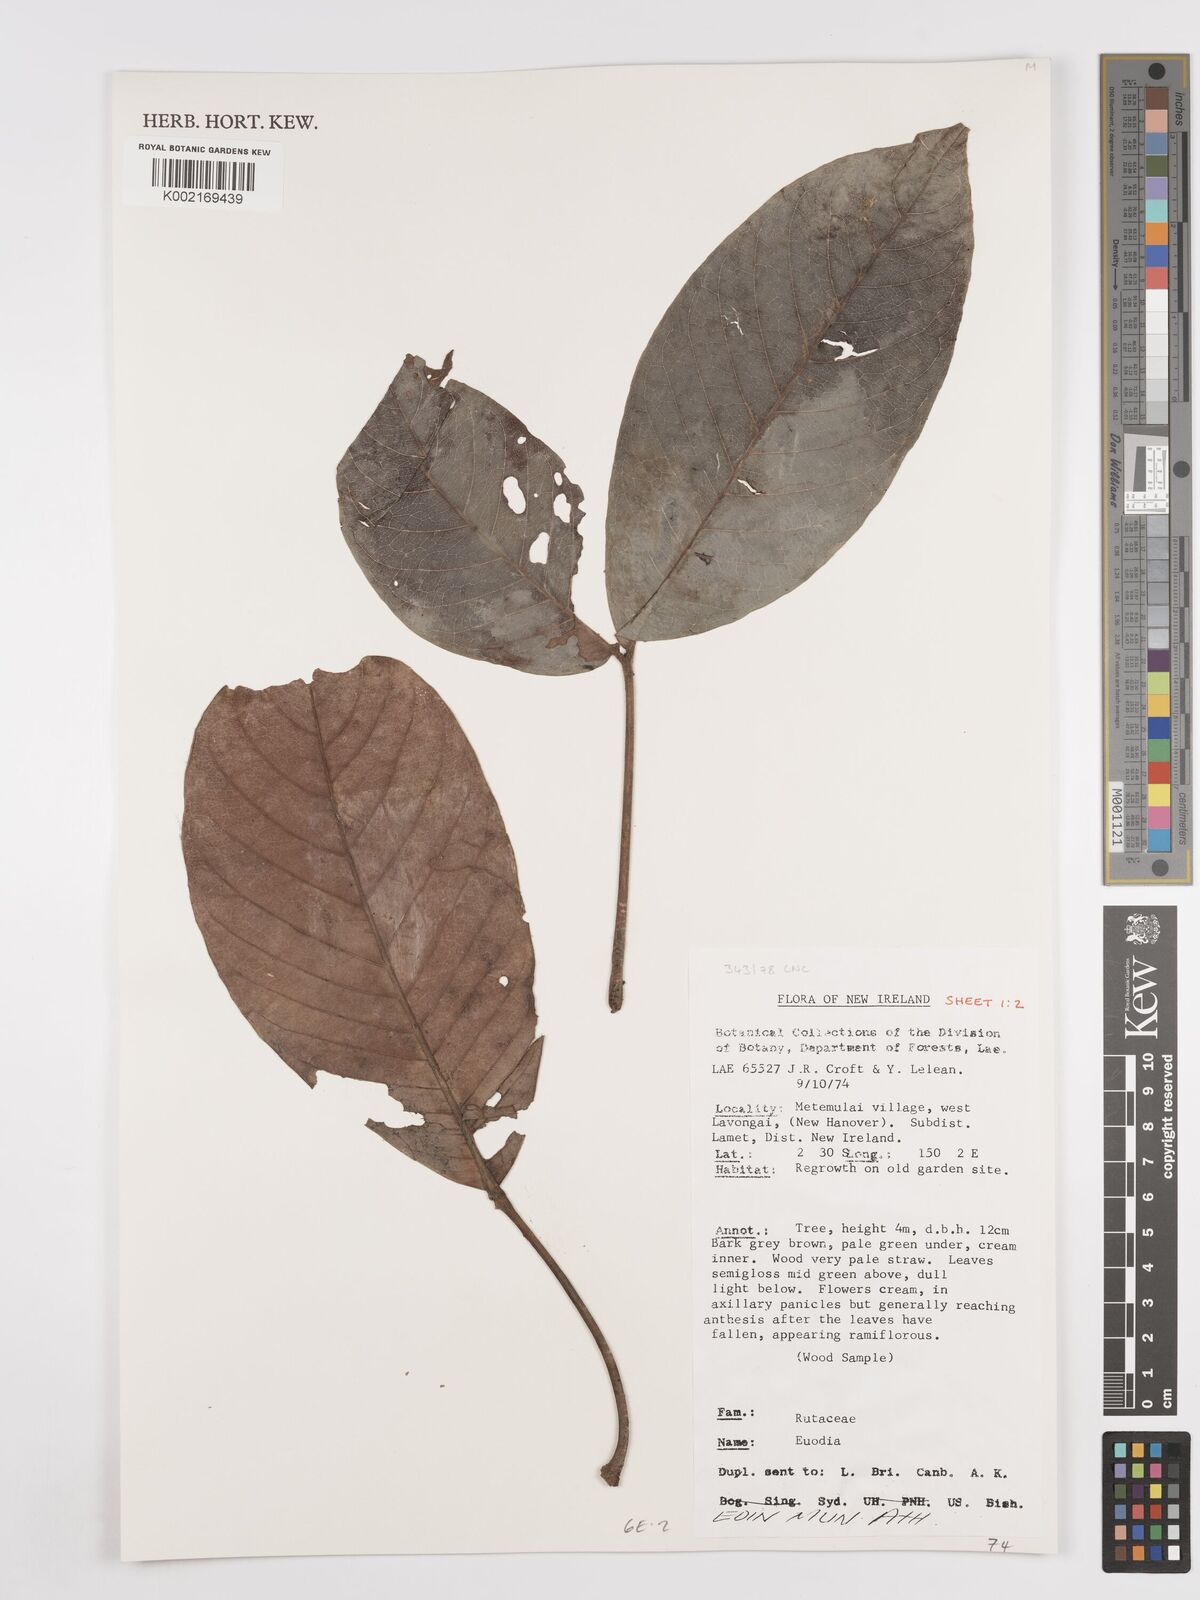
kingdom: Plantae
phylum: Tracheophyta
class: Magnoliopsida
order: Sapindales
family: Rutaceae
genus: Euodia
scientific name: Euodia
